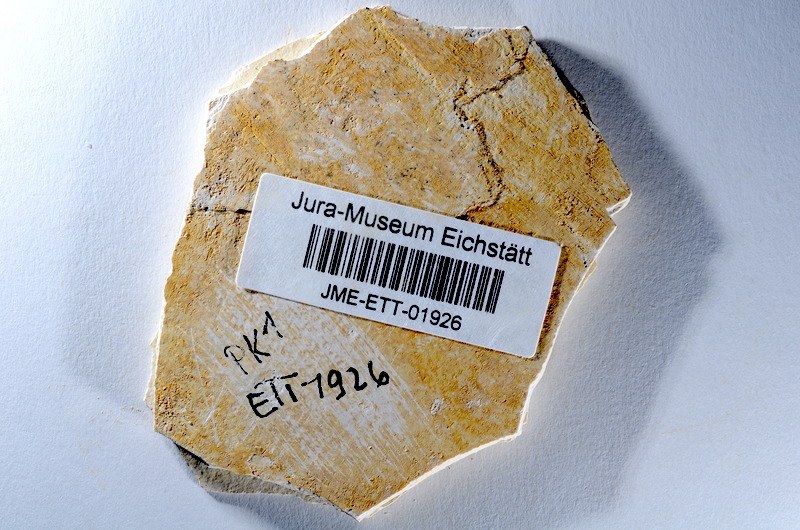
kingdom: Animalia
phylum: Chordata
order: Salmoniformes
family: Orthogonikleithridae
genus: Orthogonikleithrus
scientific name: Orthogonikleithrus hoelli
